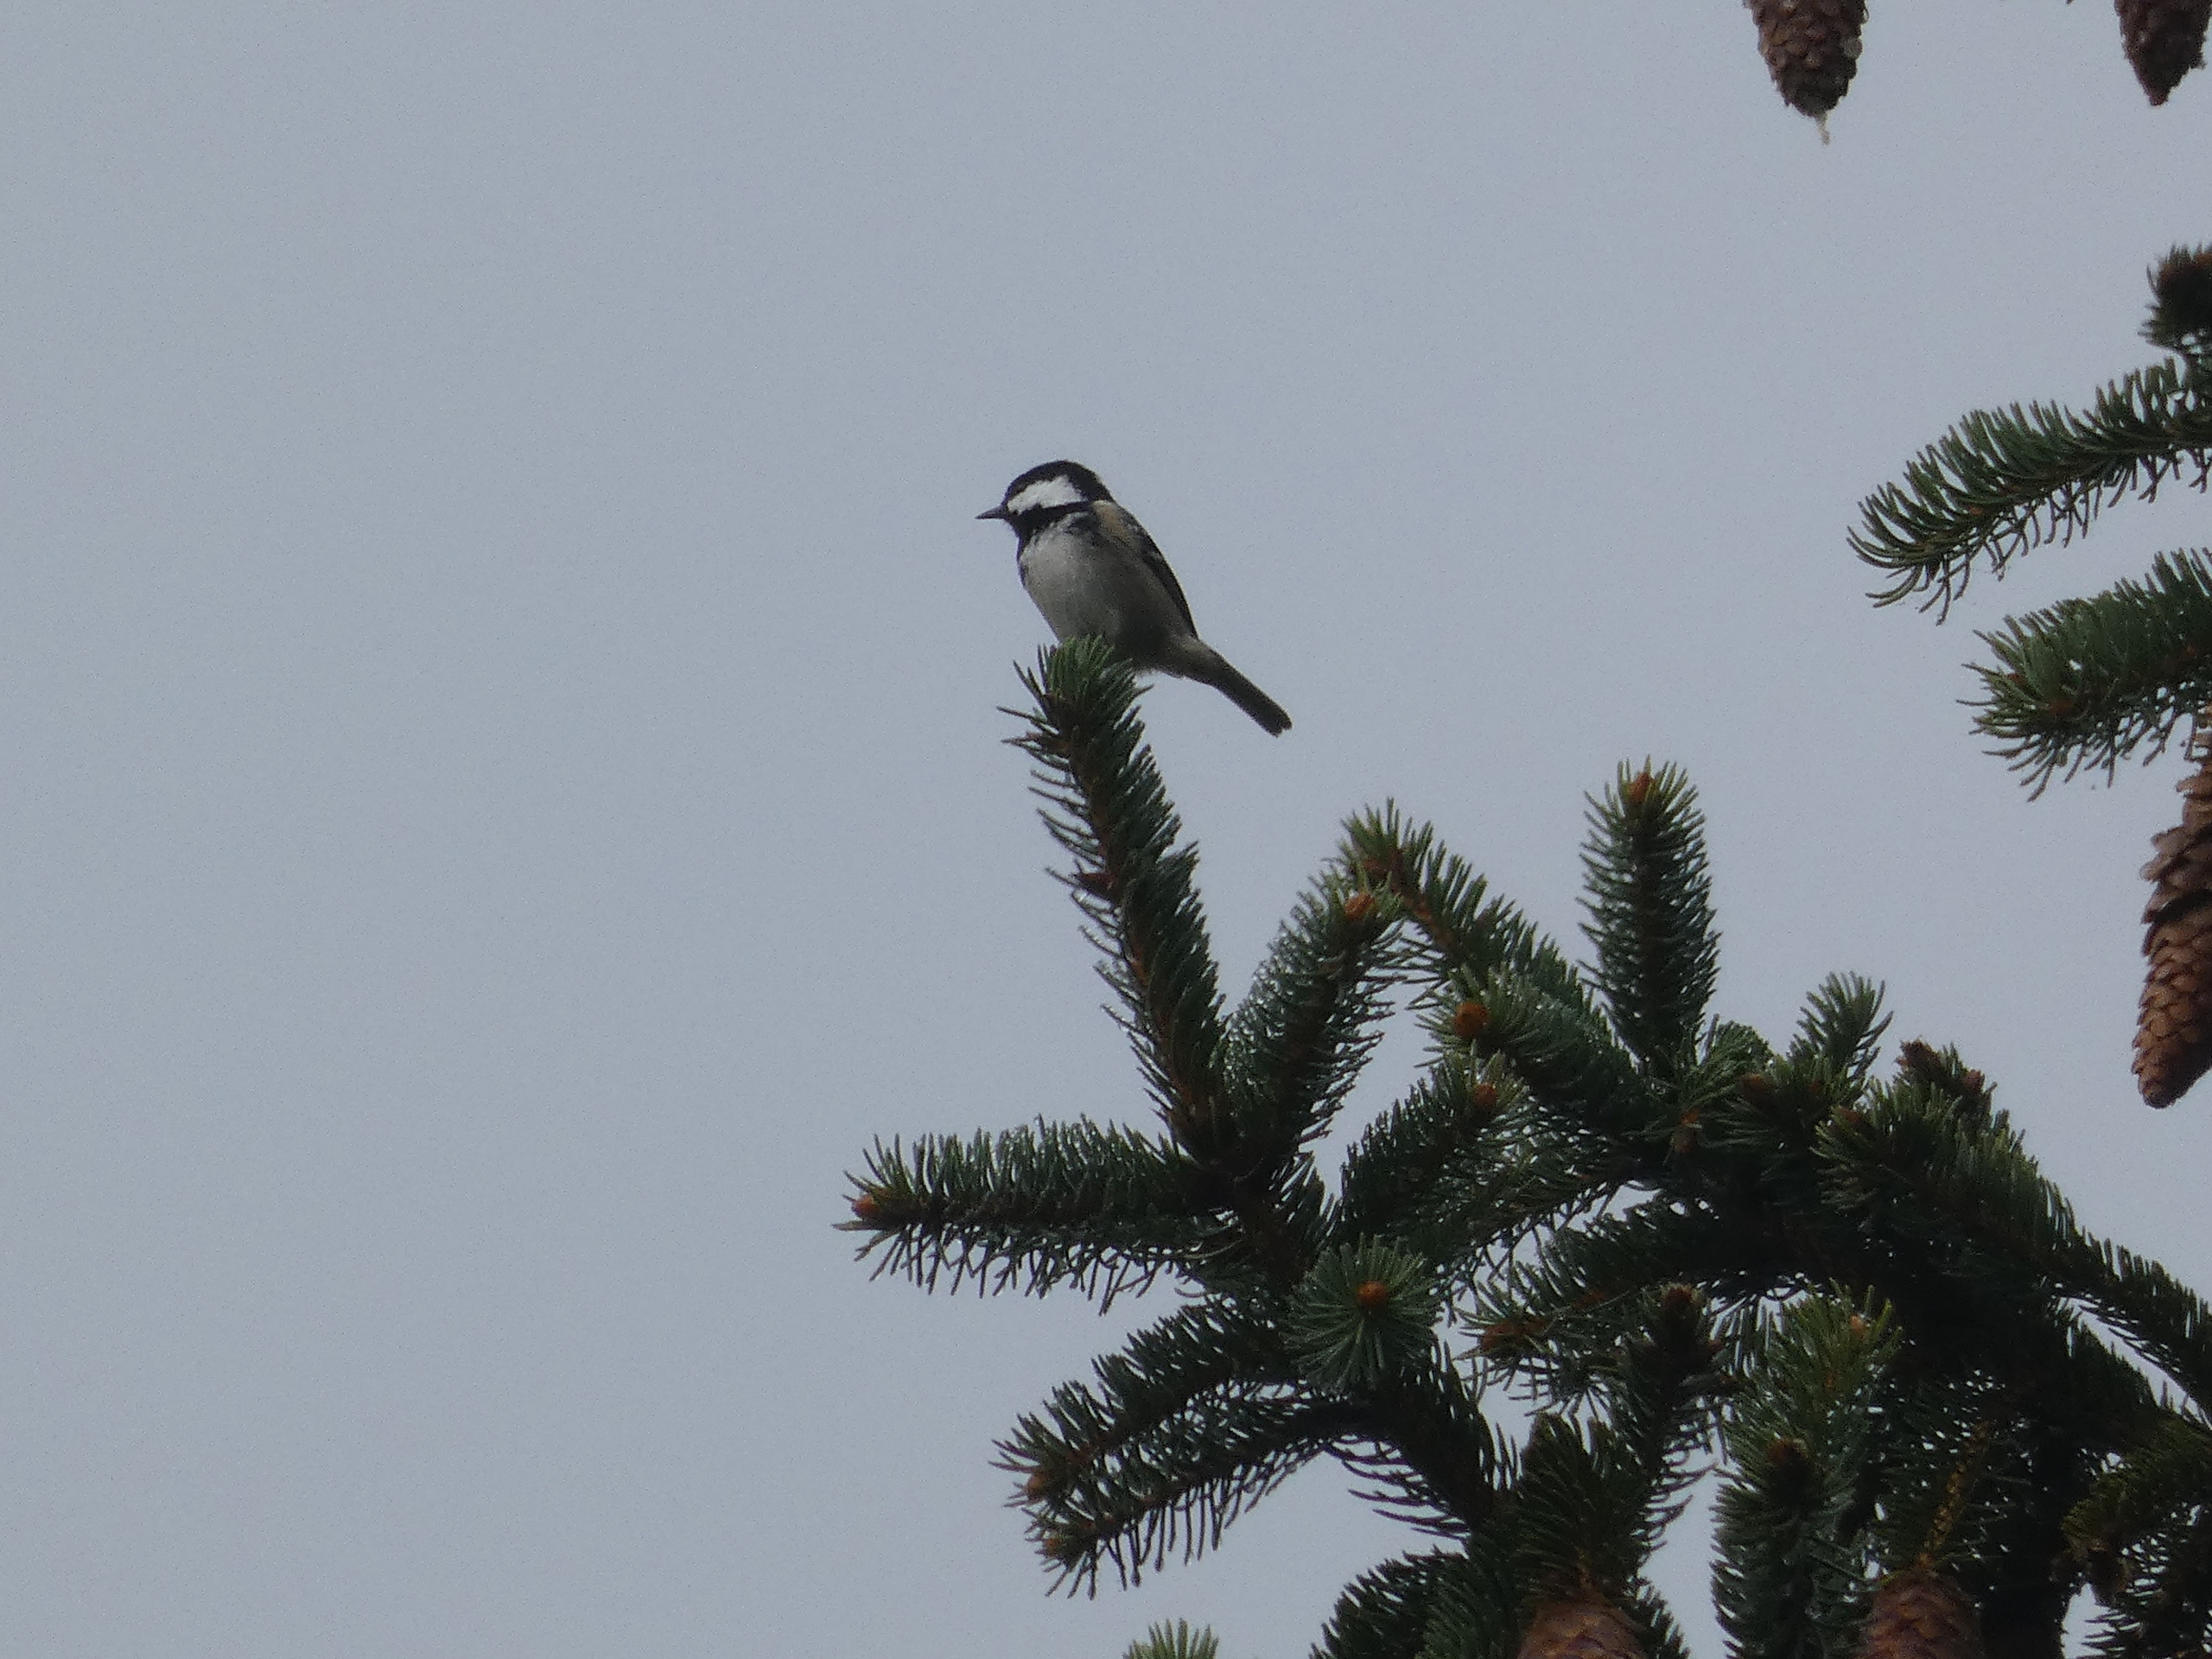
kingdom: Animalia
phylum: Chordata
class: Aves
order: Passeriformes
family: Paridae
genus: Periparus
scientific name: Periparus ater
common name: Sortmejse
